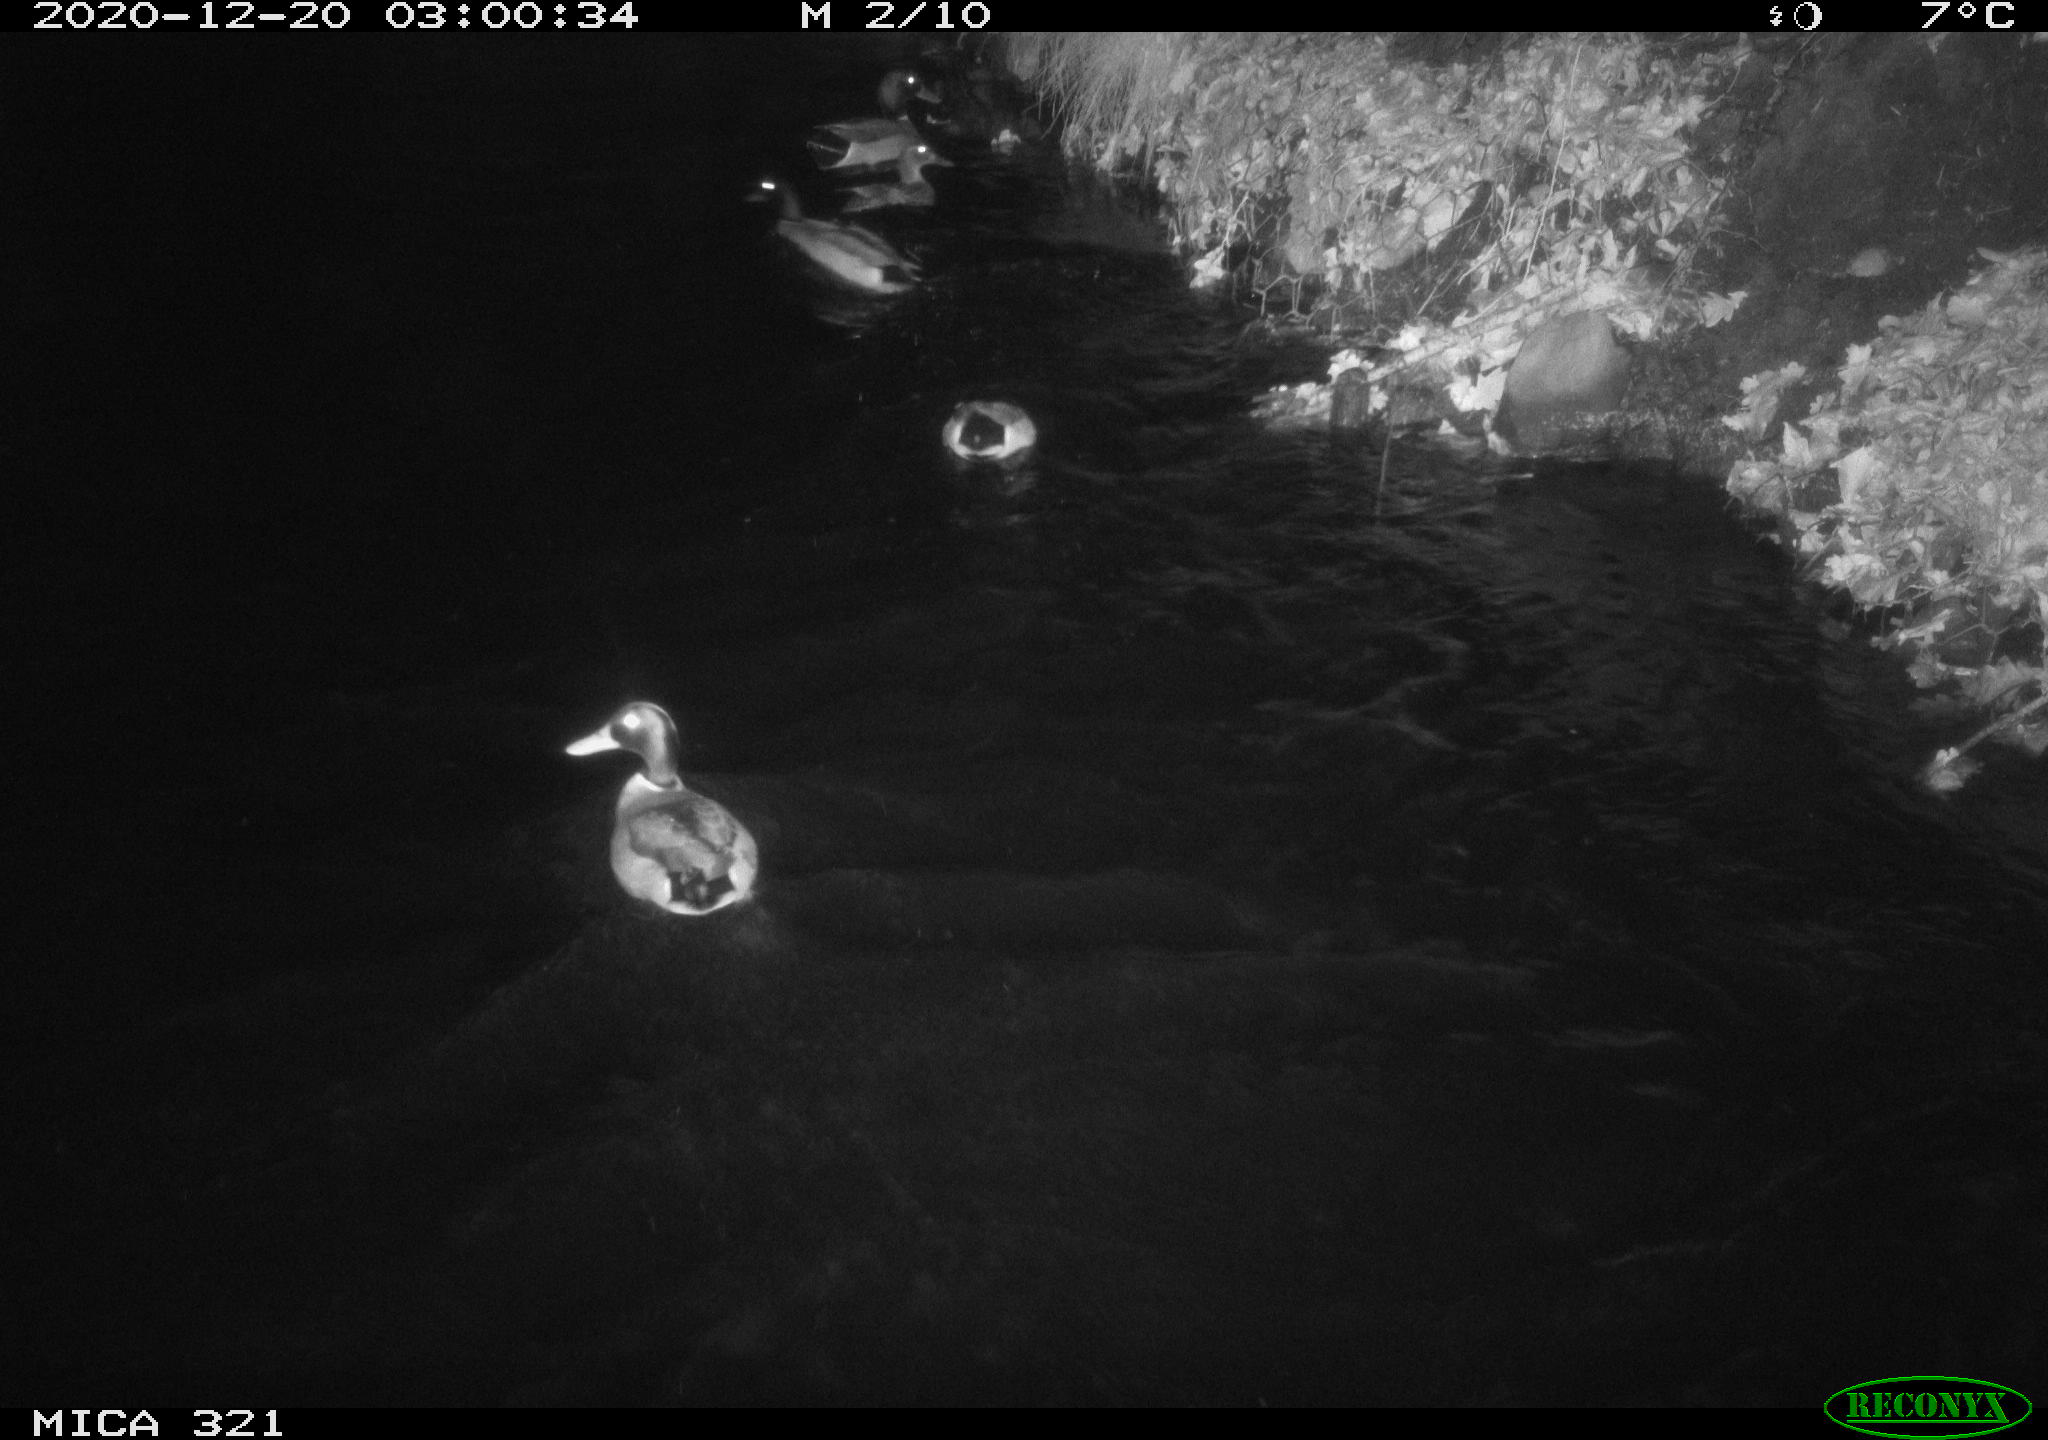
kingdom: Animalia
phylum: Chordata
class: Aves
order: Anseriformes
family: Anatidae
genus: Anas
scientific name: Anas platyrhynchos
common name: Mallard
